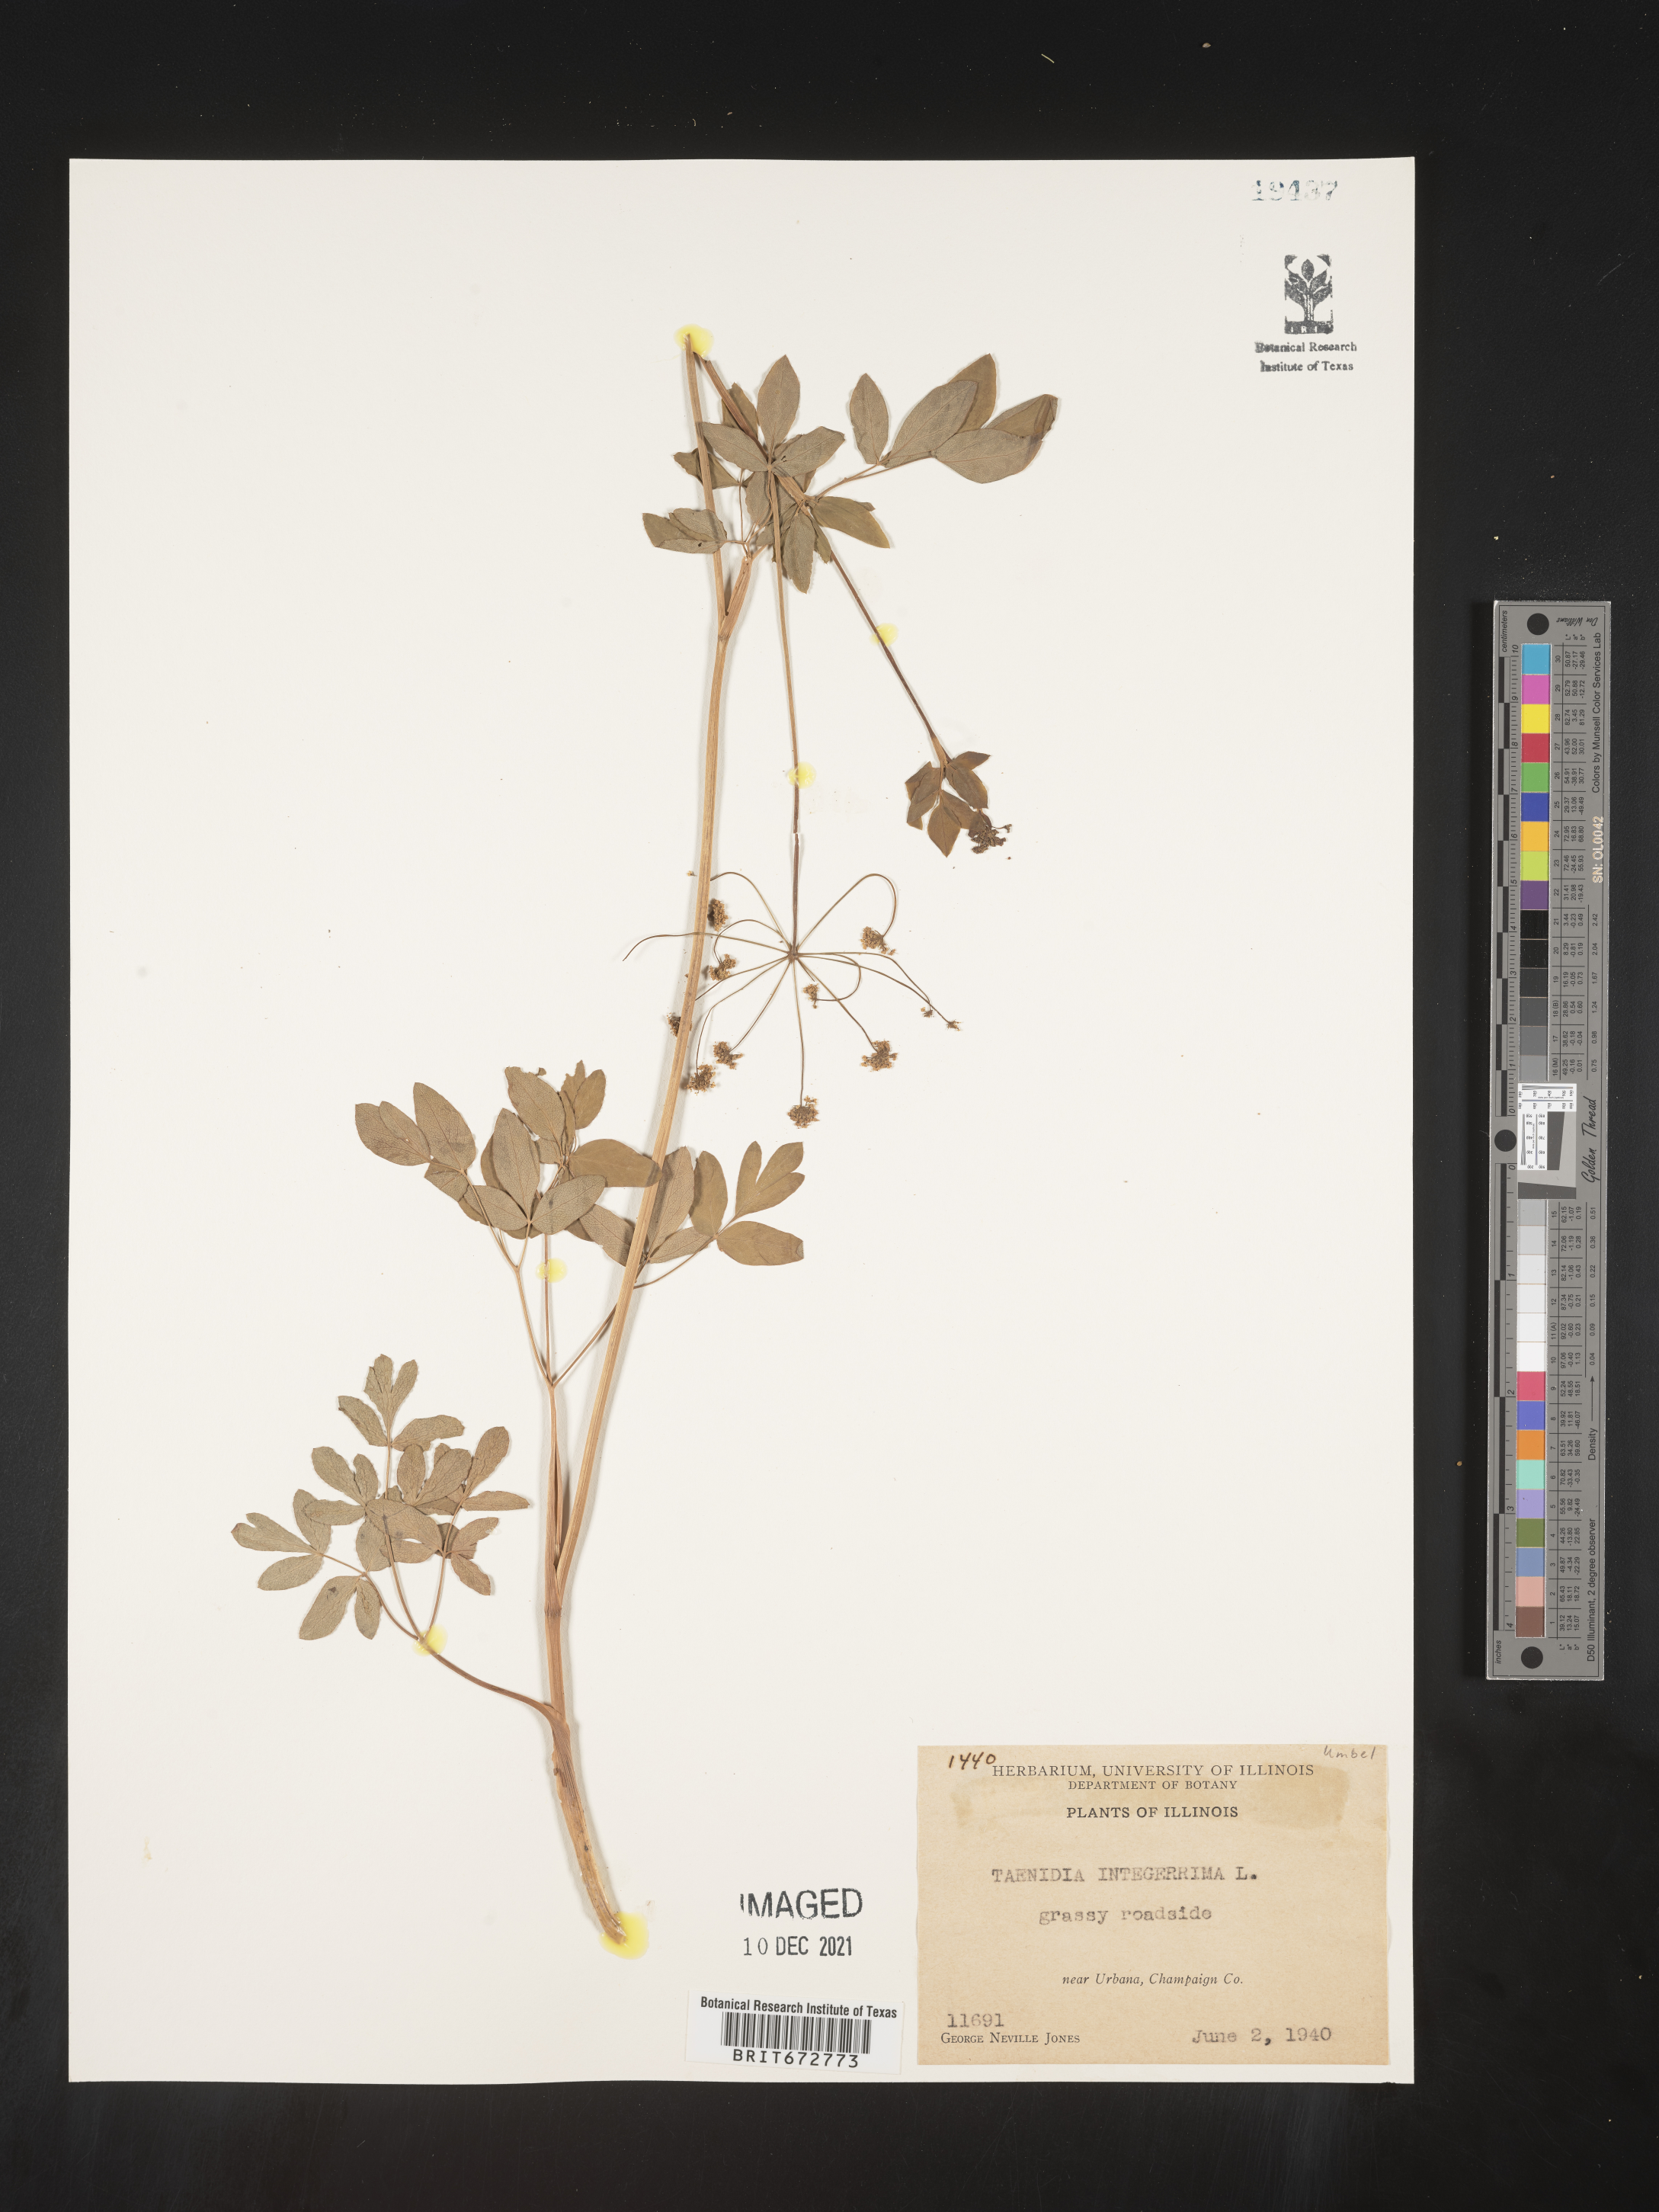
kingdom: Plantae
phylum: Tracheophyta
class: Magnoliopsida
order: Apiales
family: Apiaceae
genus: Taenidia
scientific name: Taenidia integerrima
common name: Golden alexander
